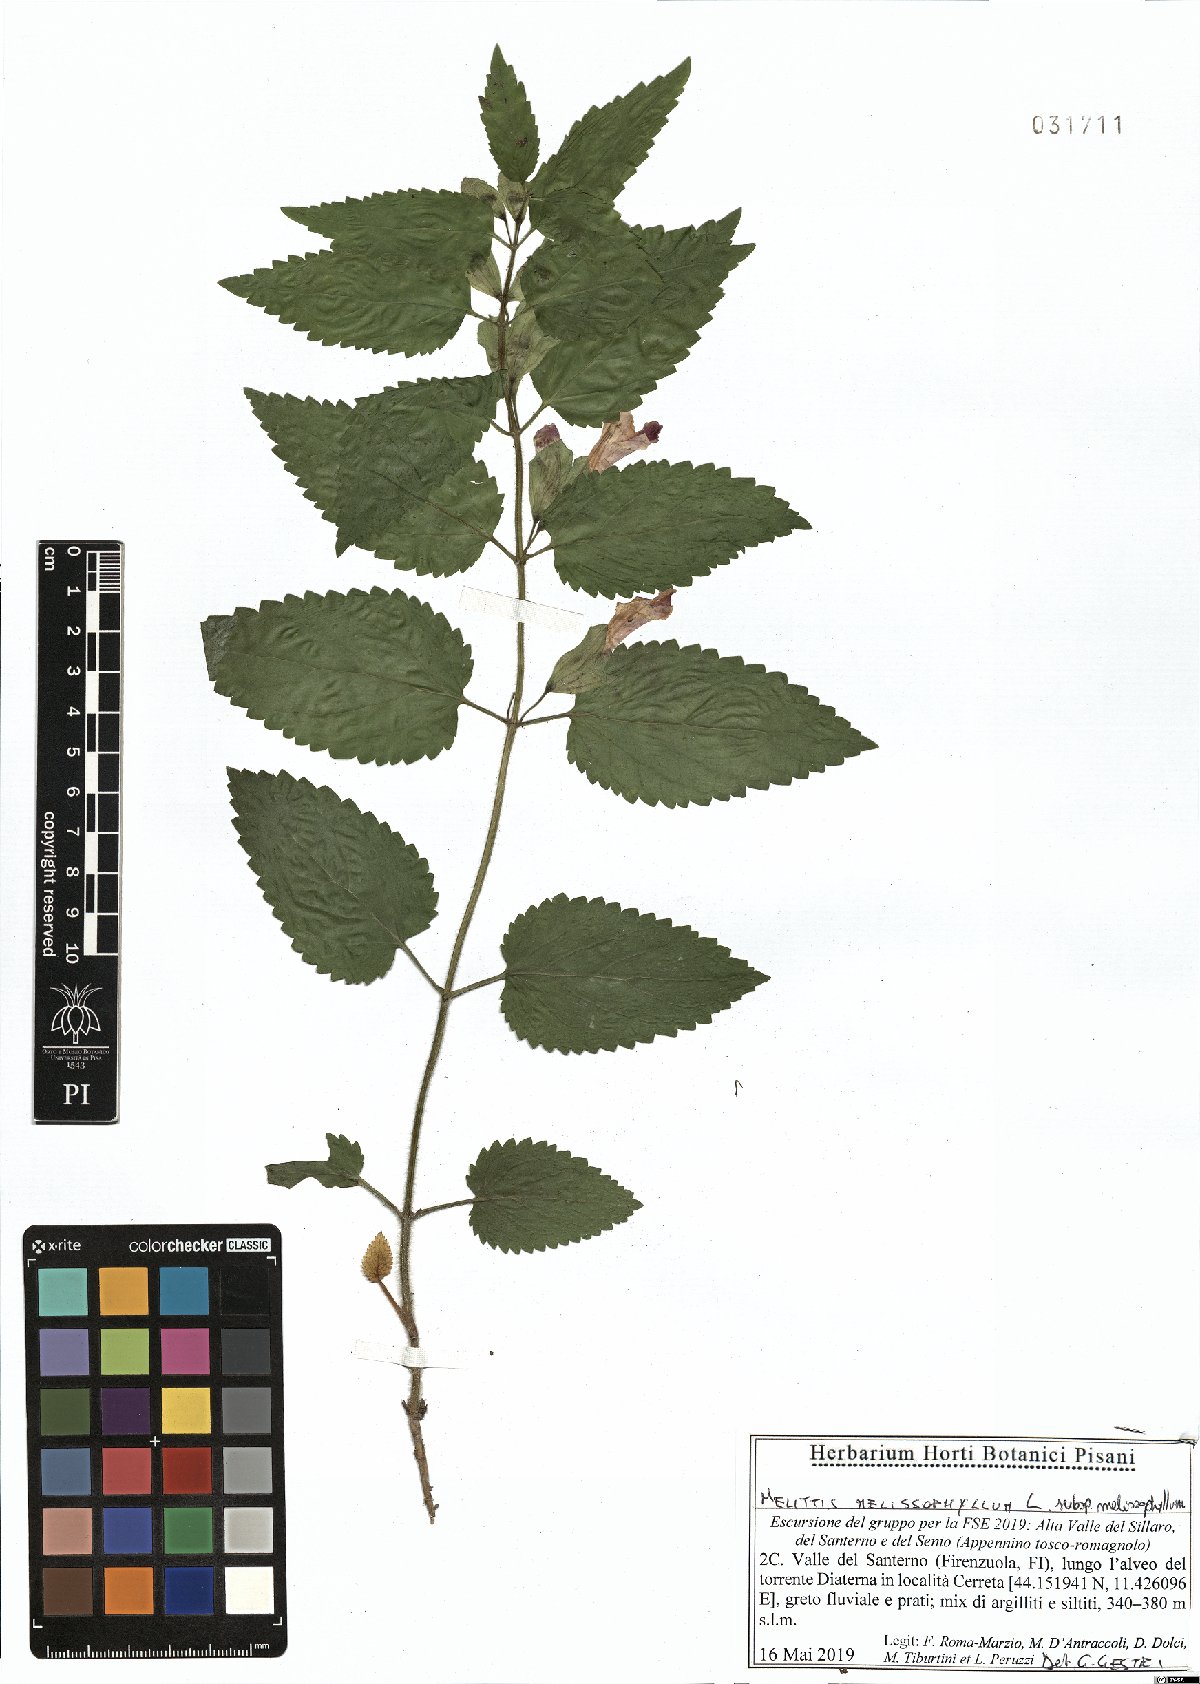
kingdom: Plantae
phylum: Tracheophyta
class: Magnoliopsida
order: Lamiales
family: Lamiaceae
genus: Melittis
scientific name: Melittis melissophyllum
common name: Bastard balm
